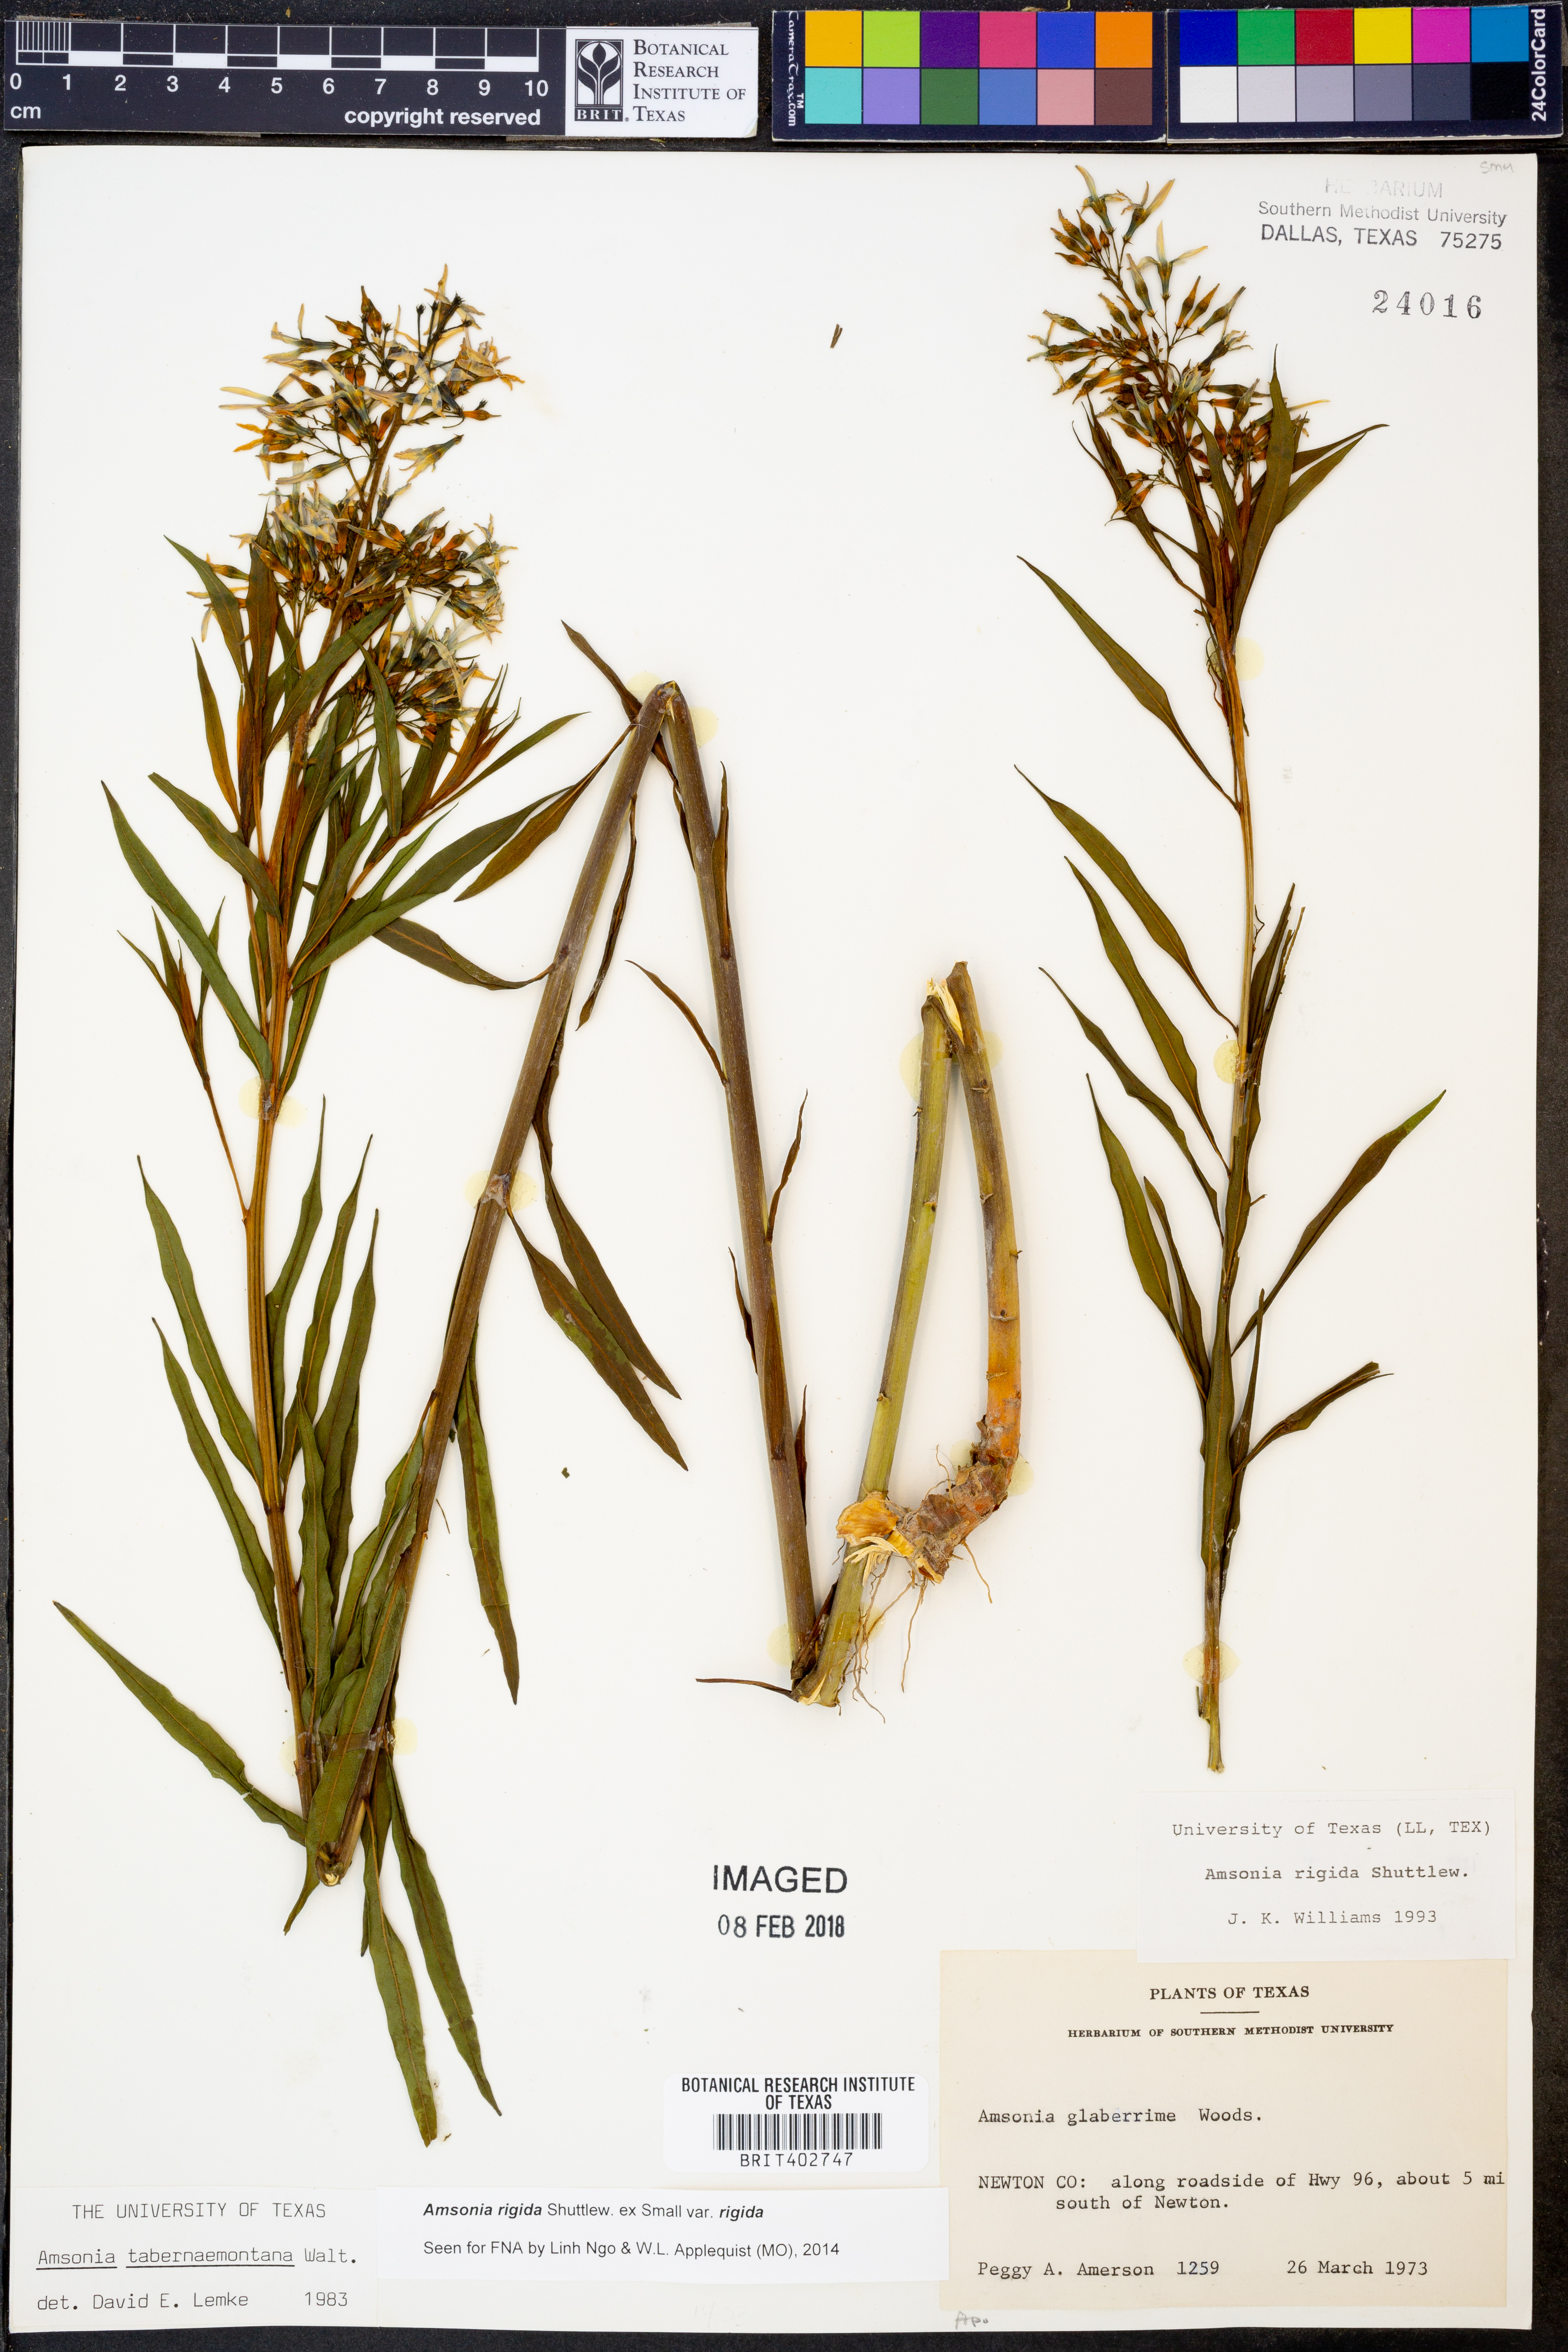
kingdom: Plantae
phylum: Tracheophyta
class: Magnoliopsida
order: Gentianales
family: Apocynaceae
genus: Amsonia
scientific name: Amsonia rigida
